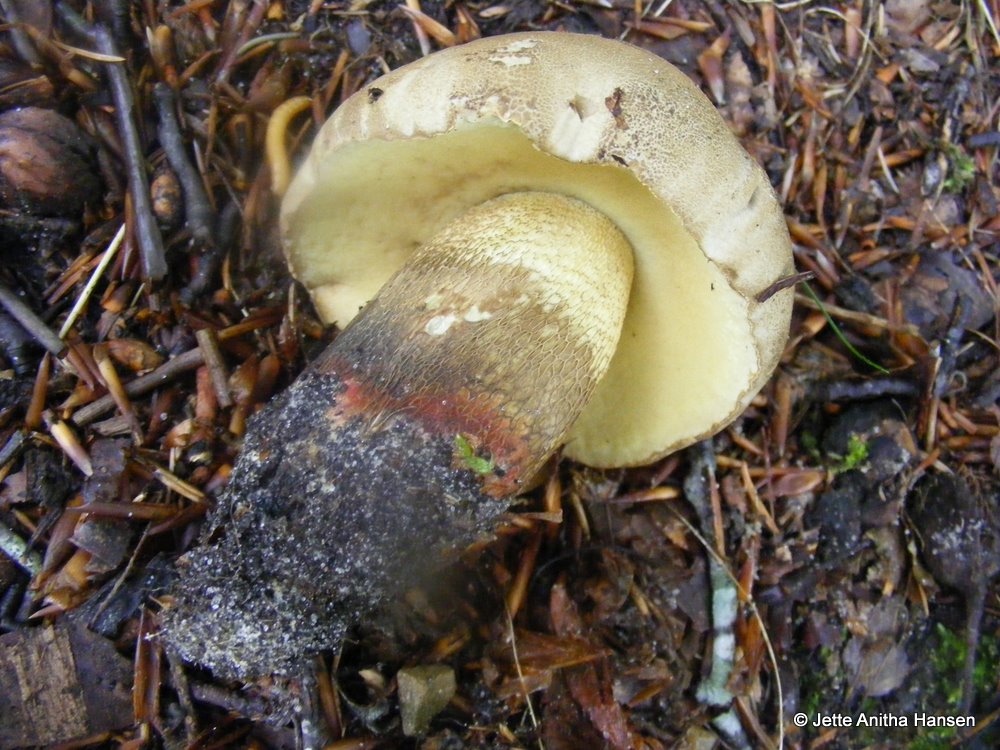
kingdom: Fungi
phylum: Basidiomycota
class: Agaricomycetes
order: Boletales
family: Boletaceae
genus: Caloboletus
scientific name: Caloboletus calopus
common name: skønfodet rørhat
